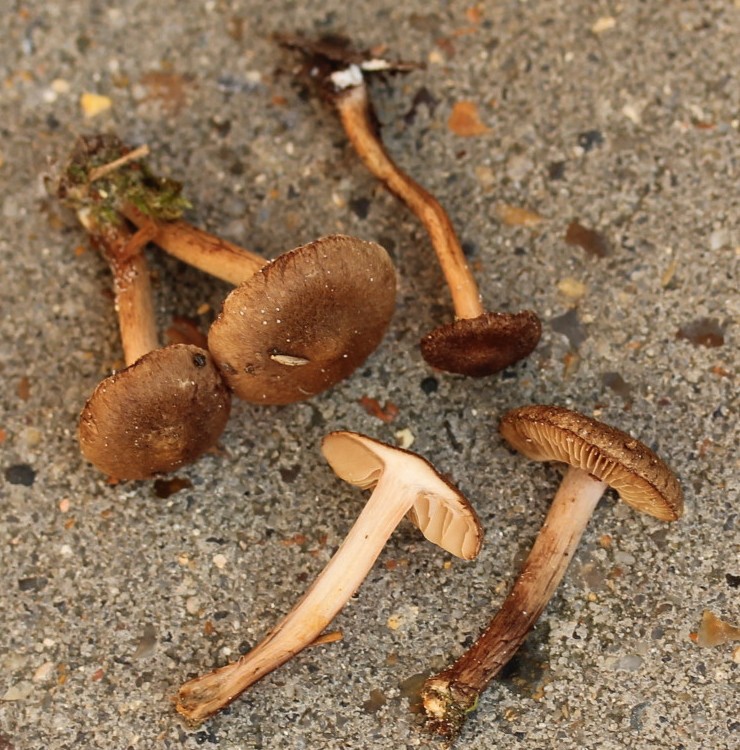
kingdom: Fungi
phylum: Basidiomycota
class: Agaricomycetes
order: Agaricales
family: Inocybaceae
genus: Inocybe
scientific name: Inocybe lacera
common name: laset trævlhat
